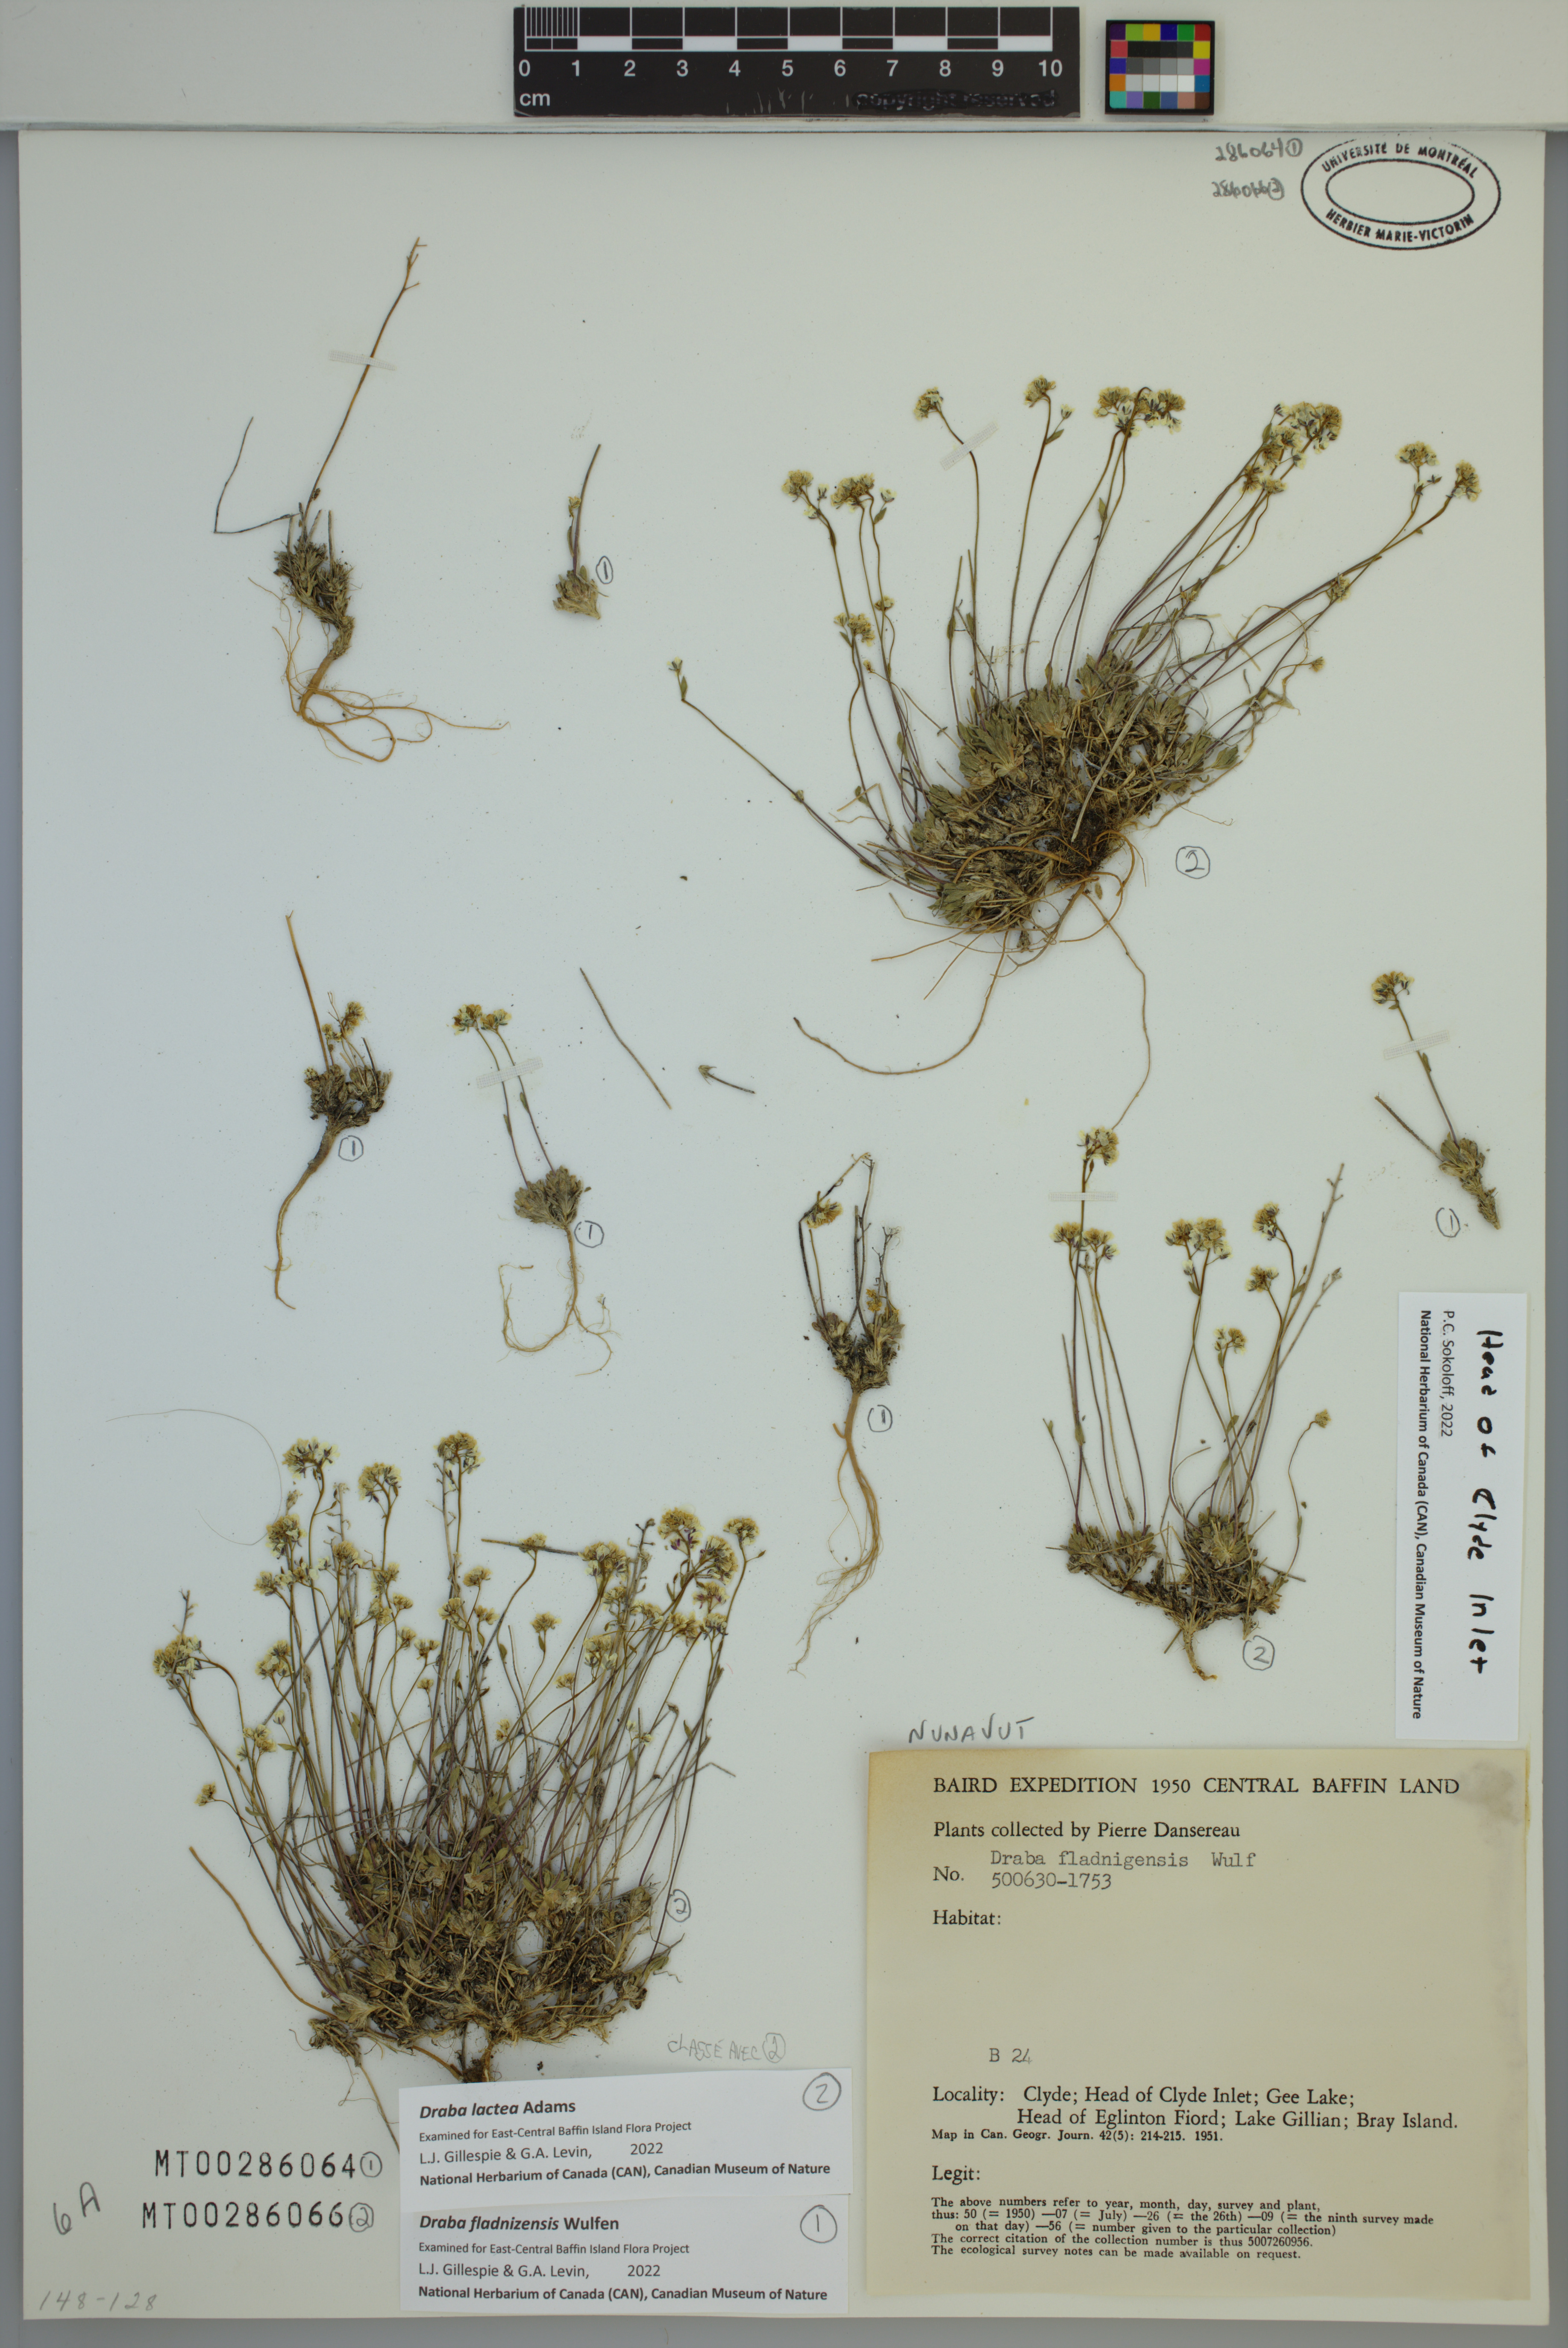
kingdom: Plantae
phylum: Tracheophyta
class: Magnoliopsida
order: Brassicales
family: Brassicaceae
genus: Draba
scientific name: Draba fladnizensis
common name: Austrian draba
